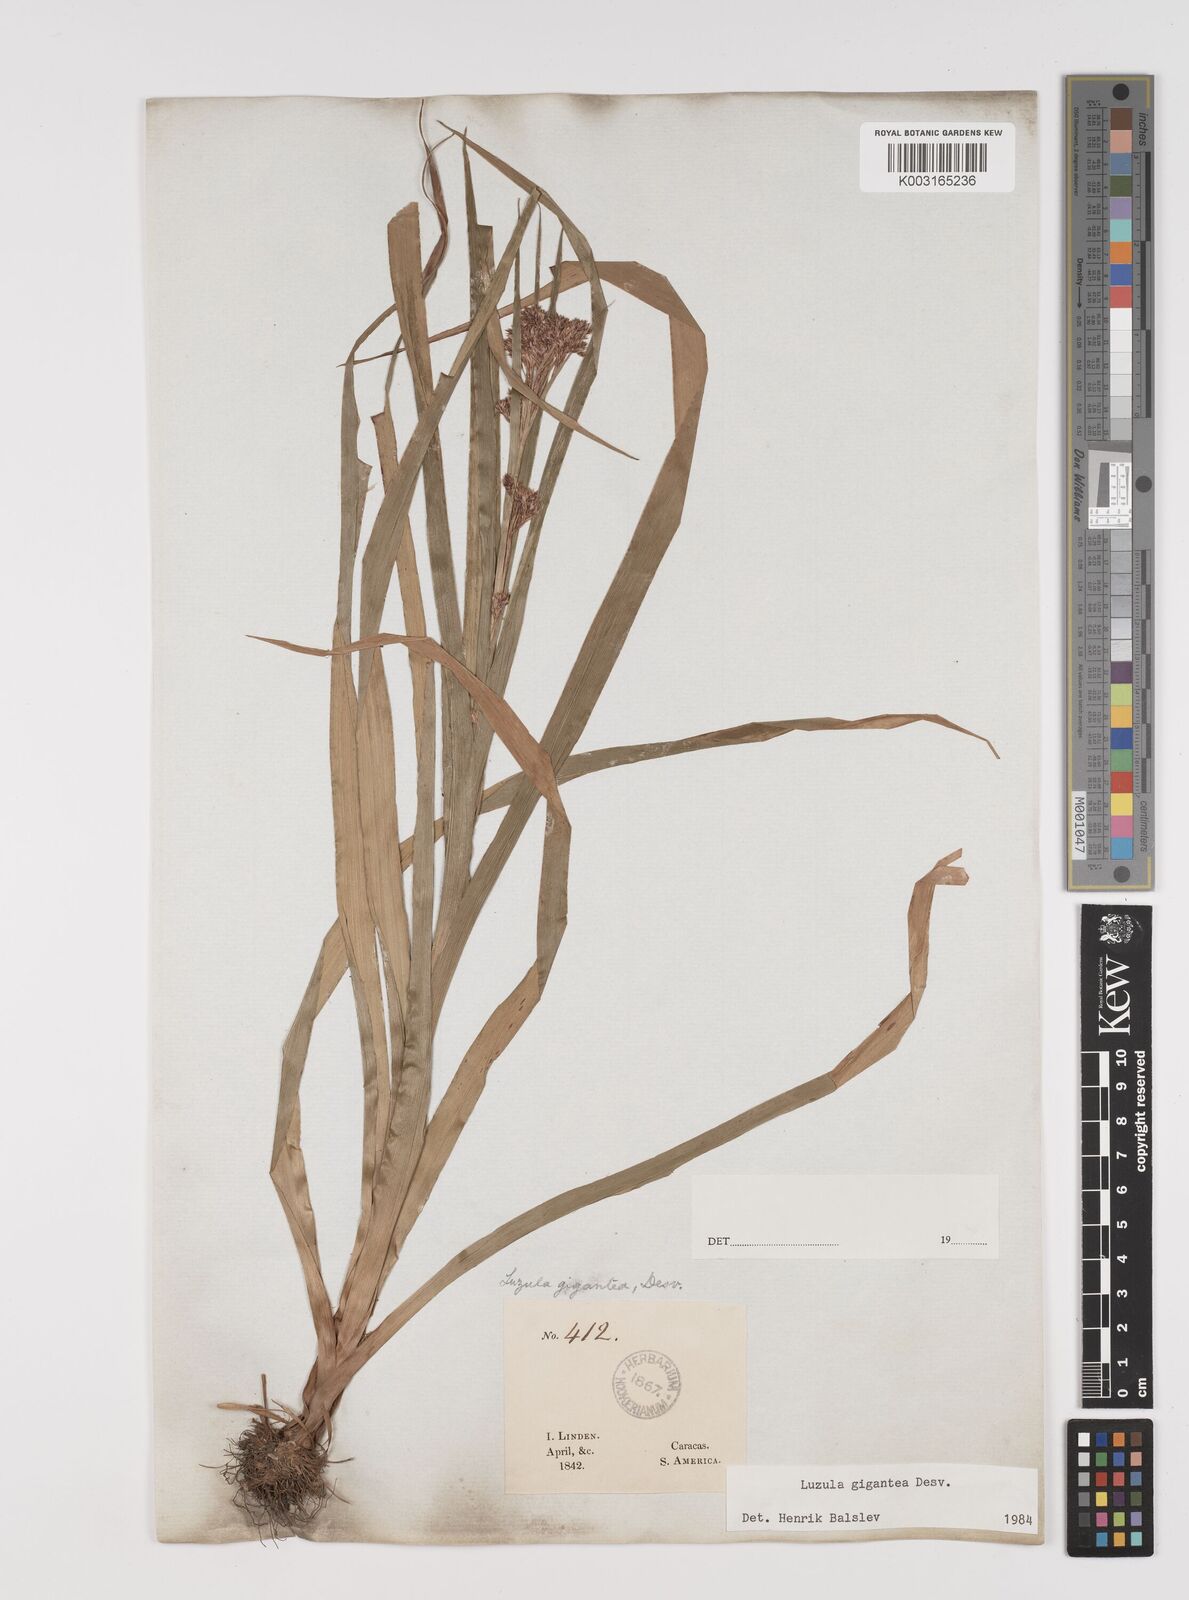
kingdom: Plantae
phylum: Tracheophyta
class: Liliopsida
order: Poales
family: Juncaceae
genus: Luzula
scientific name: Luzula gigantea
